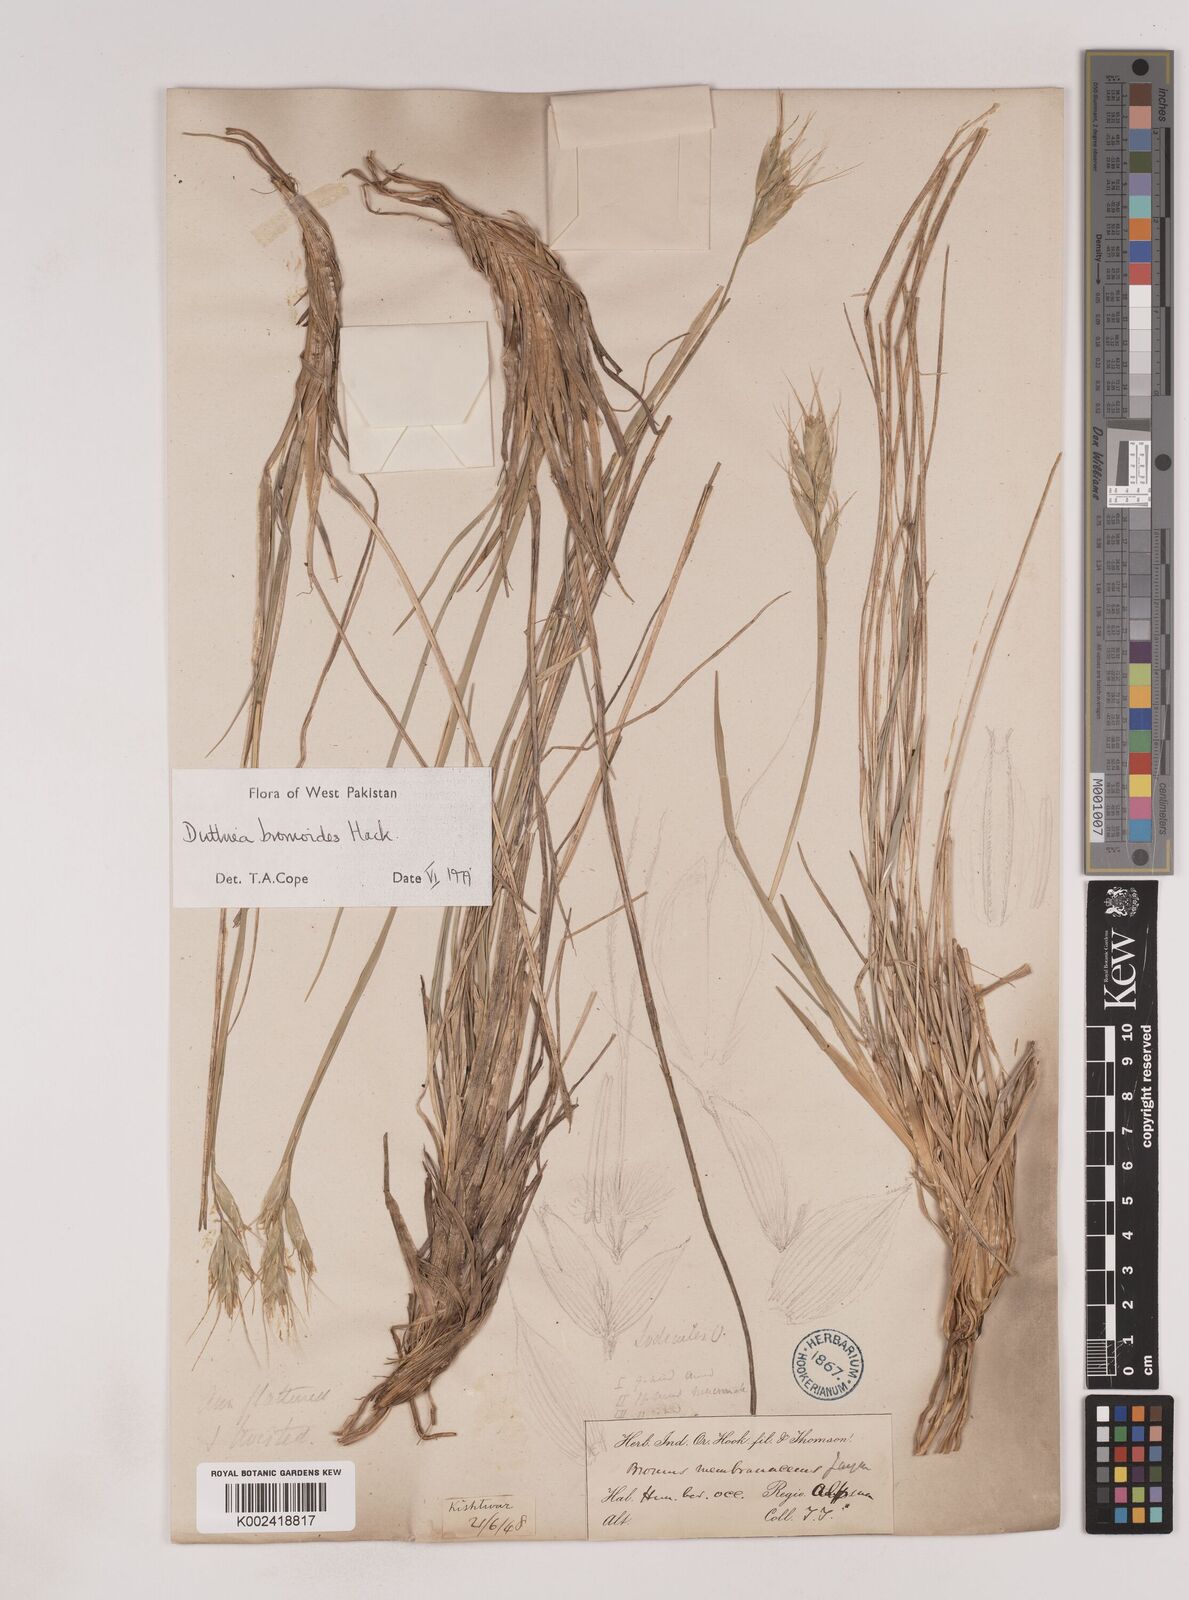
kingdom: Plantae
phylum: Tracheophyta
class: Liliopsida
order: Poales
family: Poaceae
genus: Duthiea
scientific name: Duthiea bromoides
